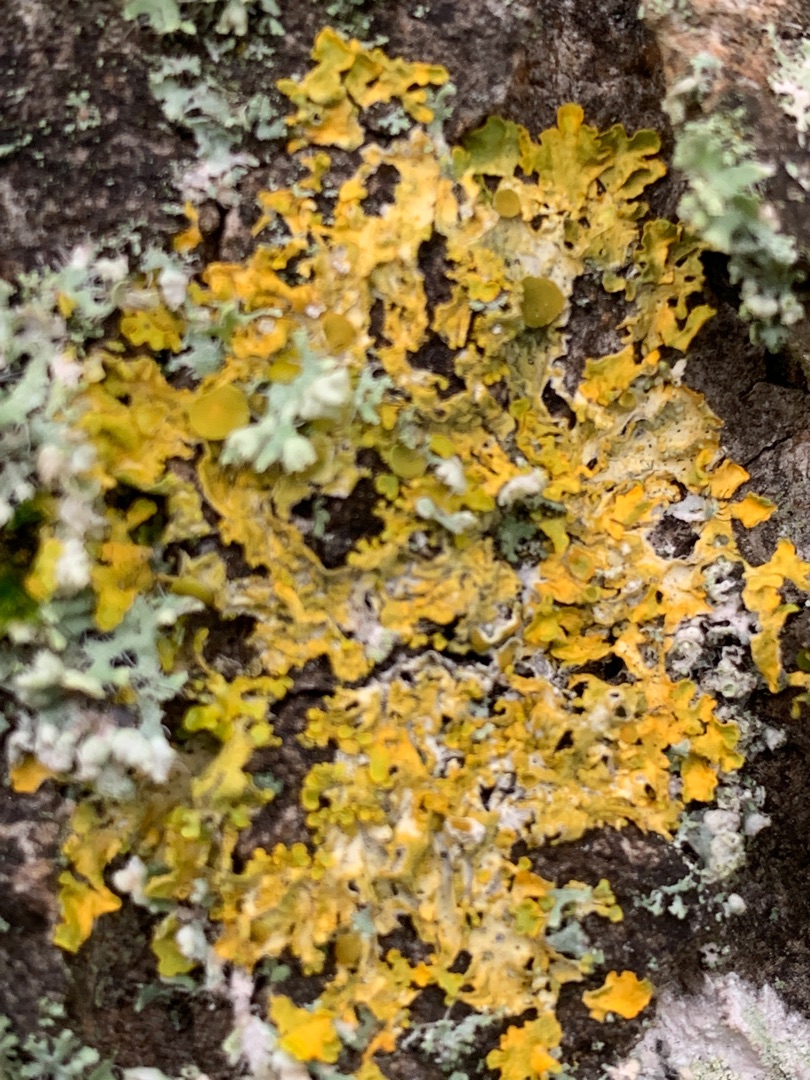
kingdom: Fungi
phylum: Ascomycota
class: Lecanoromycetes
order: Teloschistales
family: Teloschistaceae
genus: Xanthoria
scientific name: Xanthoria parietina
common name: Almindelig væggelav
